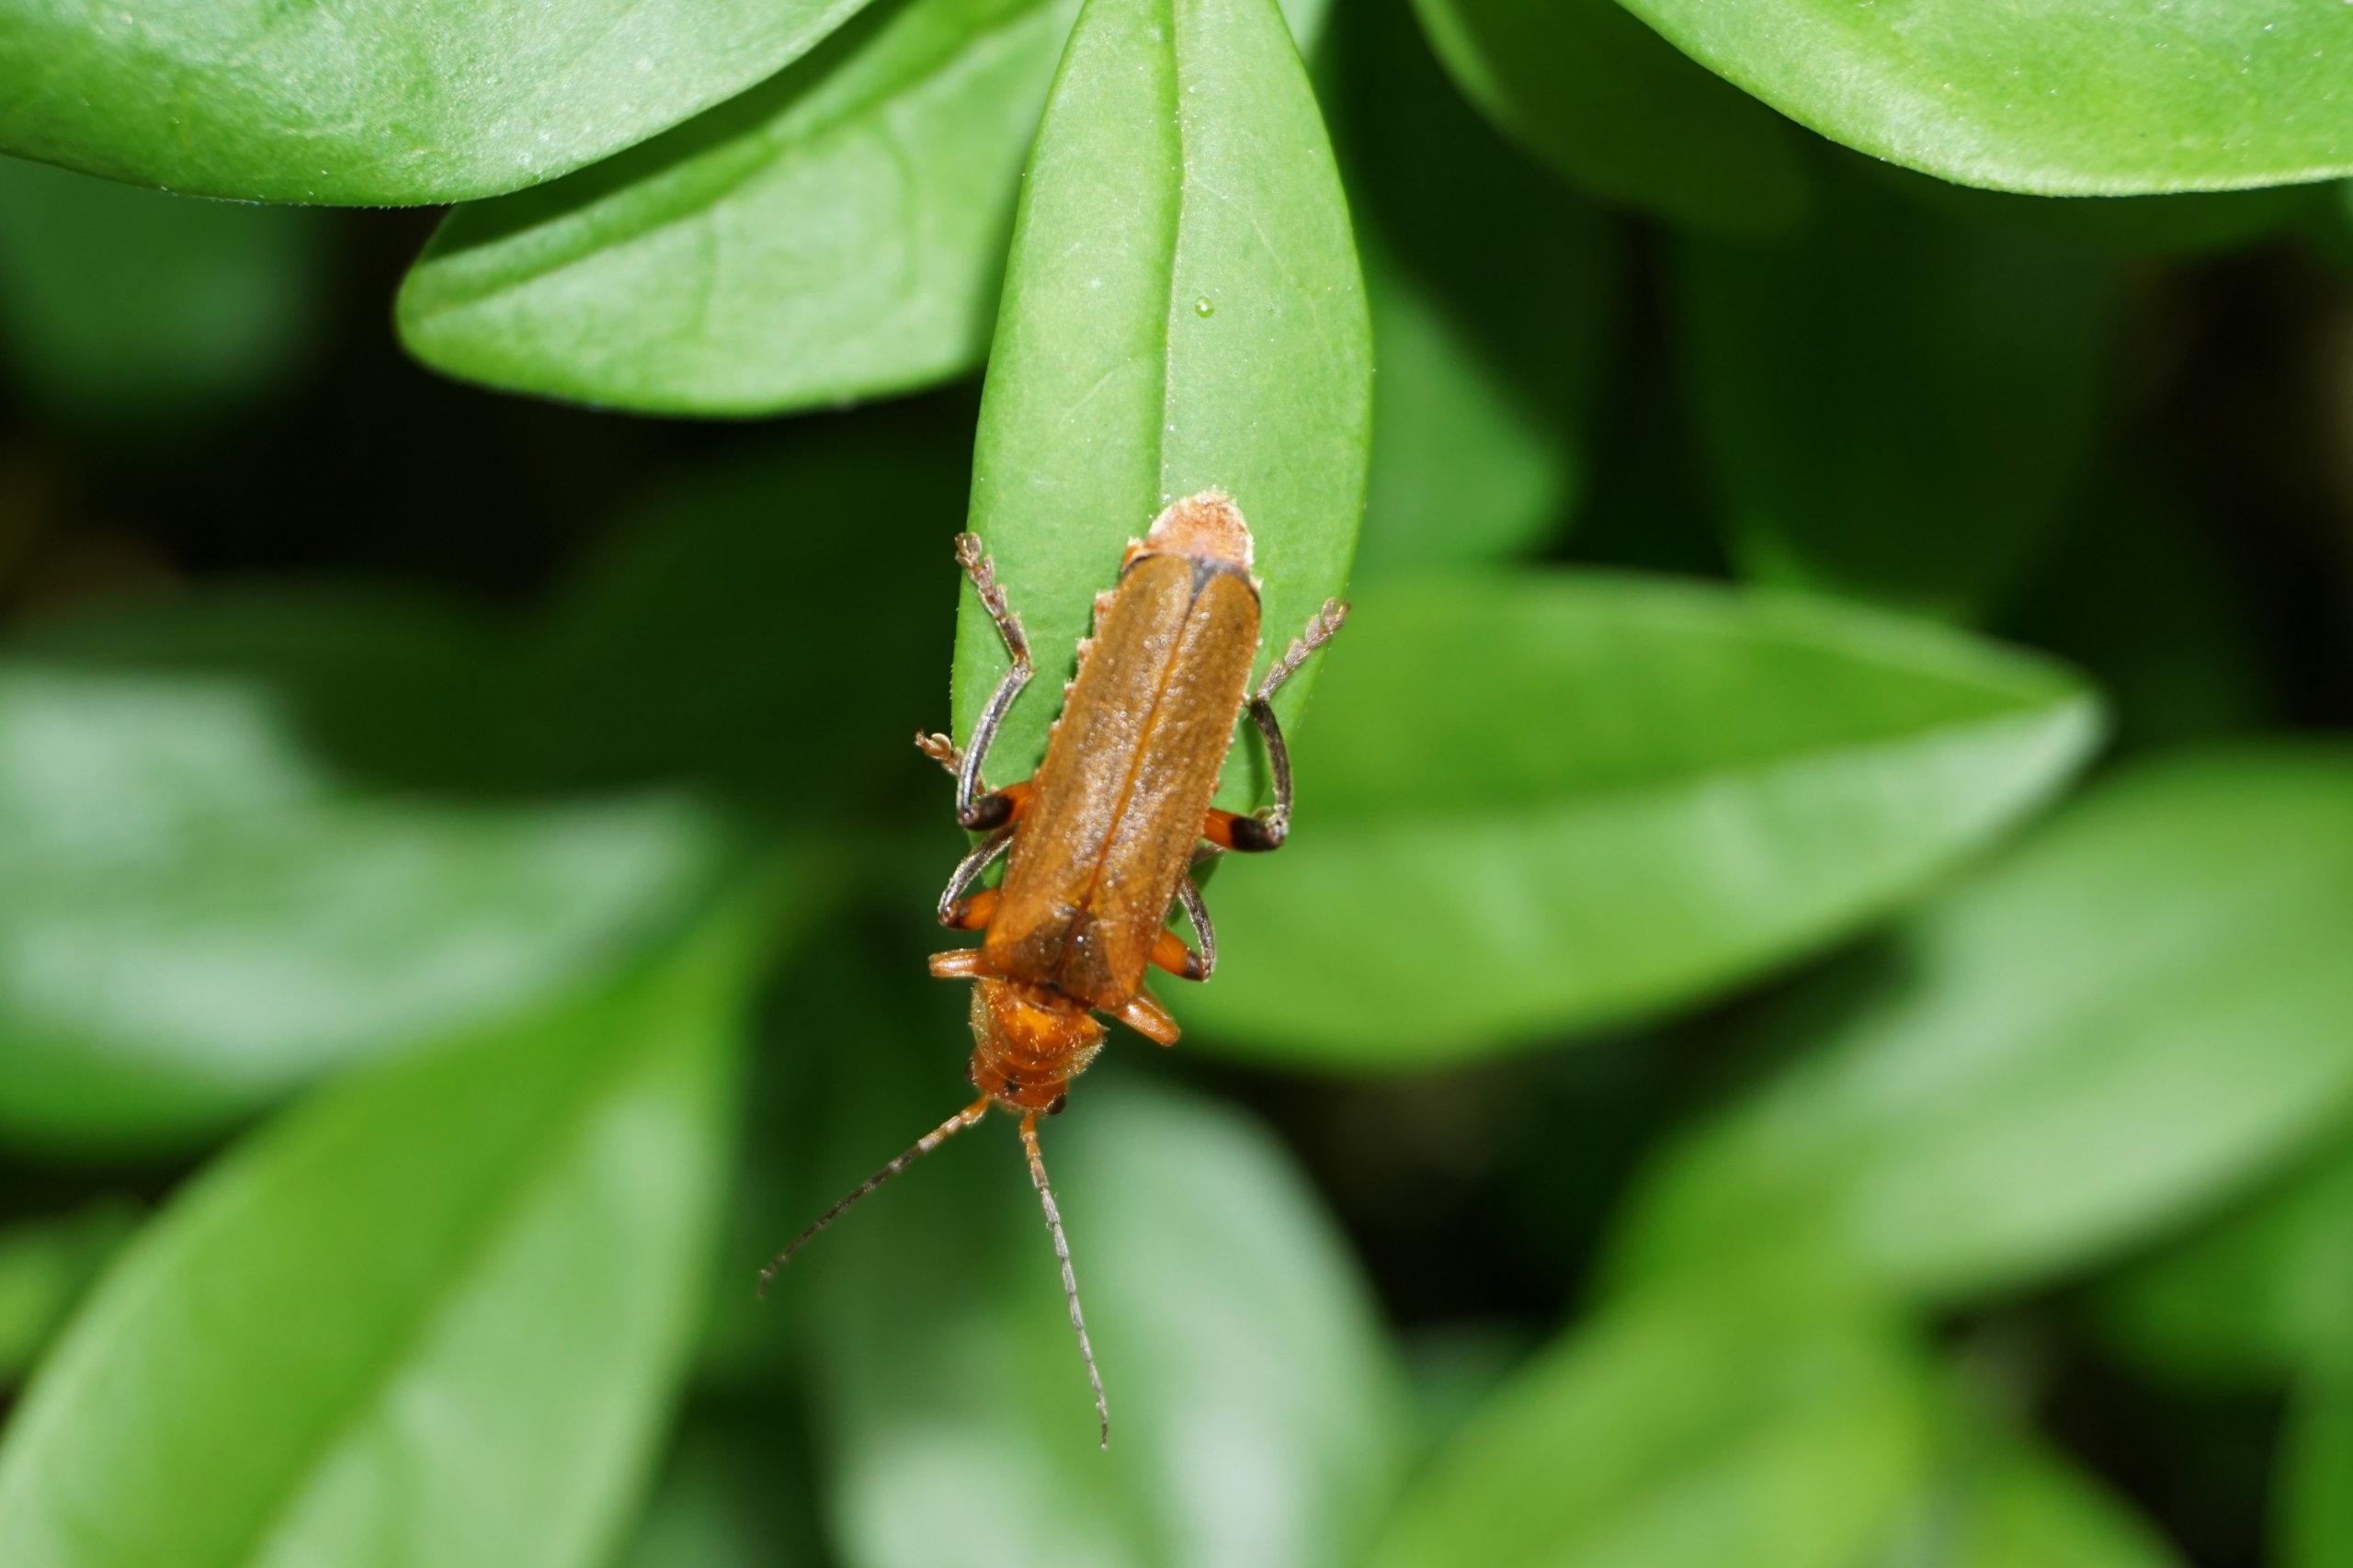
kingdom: Animalia
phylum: Arthropoda
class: Insecta
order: Coleoptera
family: Cantharidae
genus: Cantharis
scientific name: Cantharis livida
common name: Gul blødvinge
